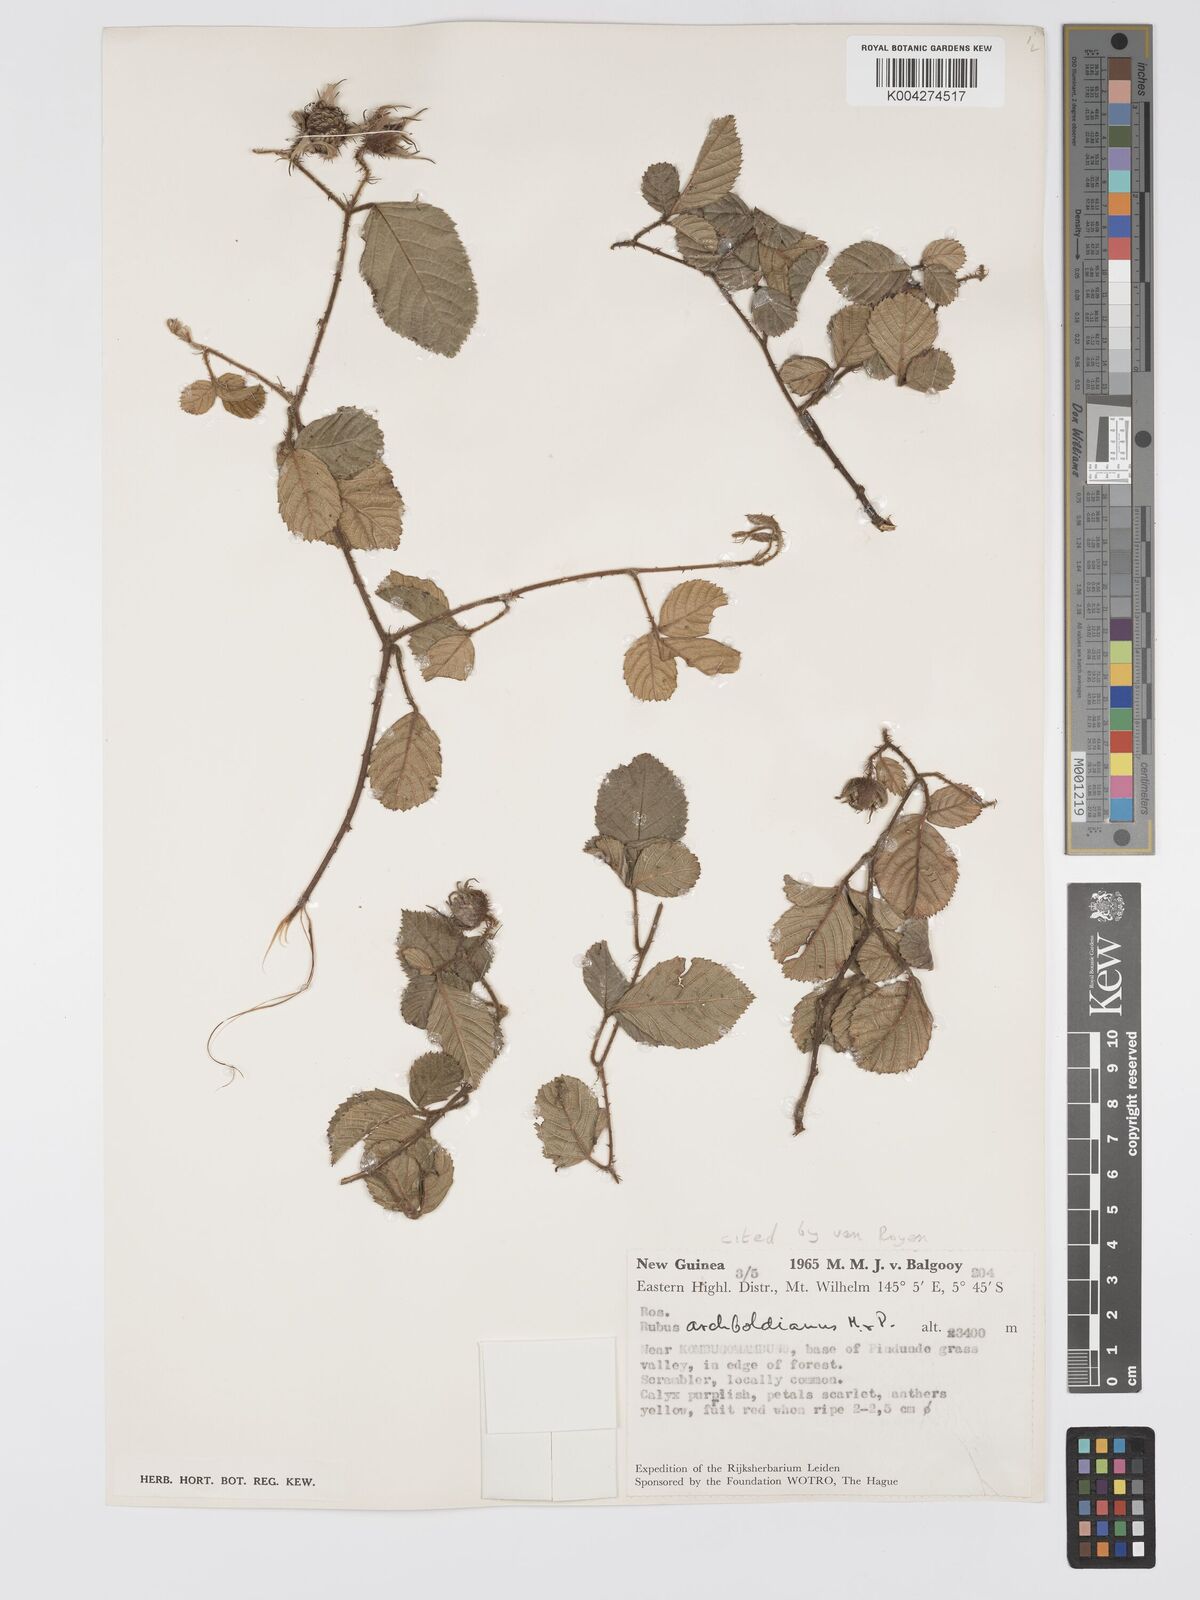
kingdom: Plantae
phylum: Tracheophyta
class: Magnoliopsida
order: Rosales
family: Rosaceae
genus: Rubus
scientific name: Rubus archboldianus
